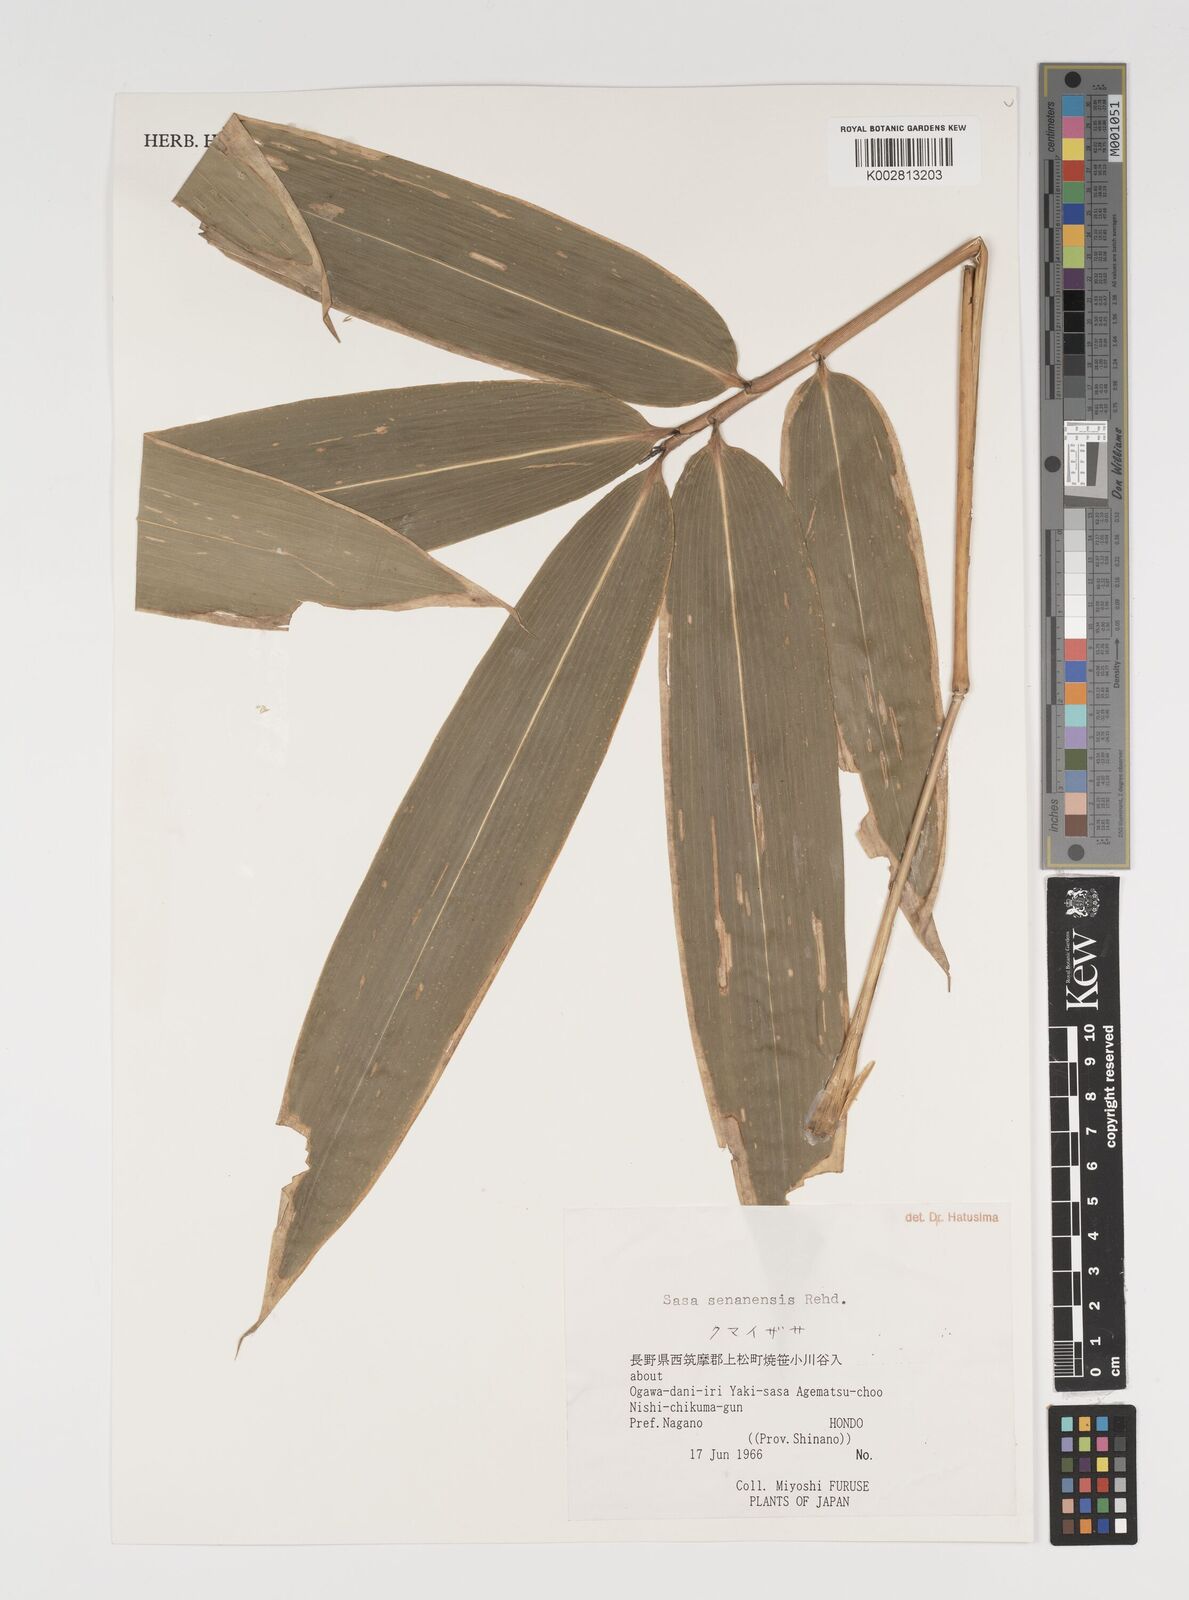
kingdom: Plantae
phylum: Tracheophyta
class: Liliopsida
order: Poales
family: Poaceae
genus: Sasa
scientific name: Sasa senanensis
